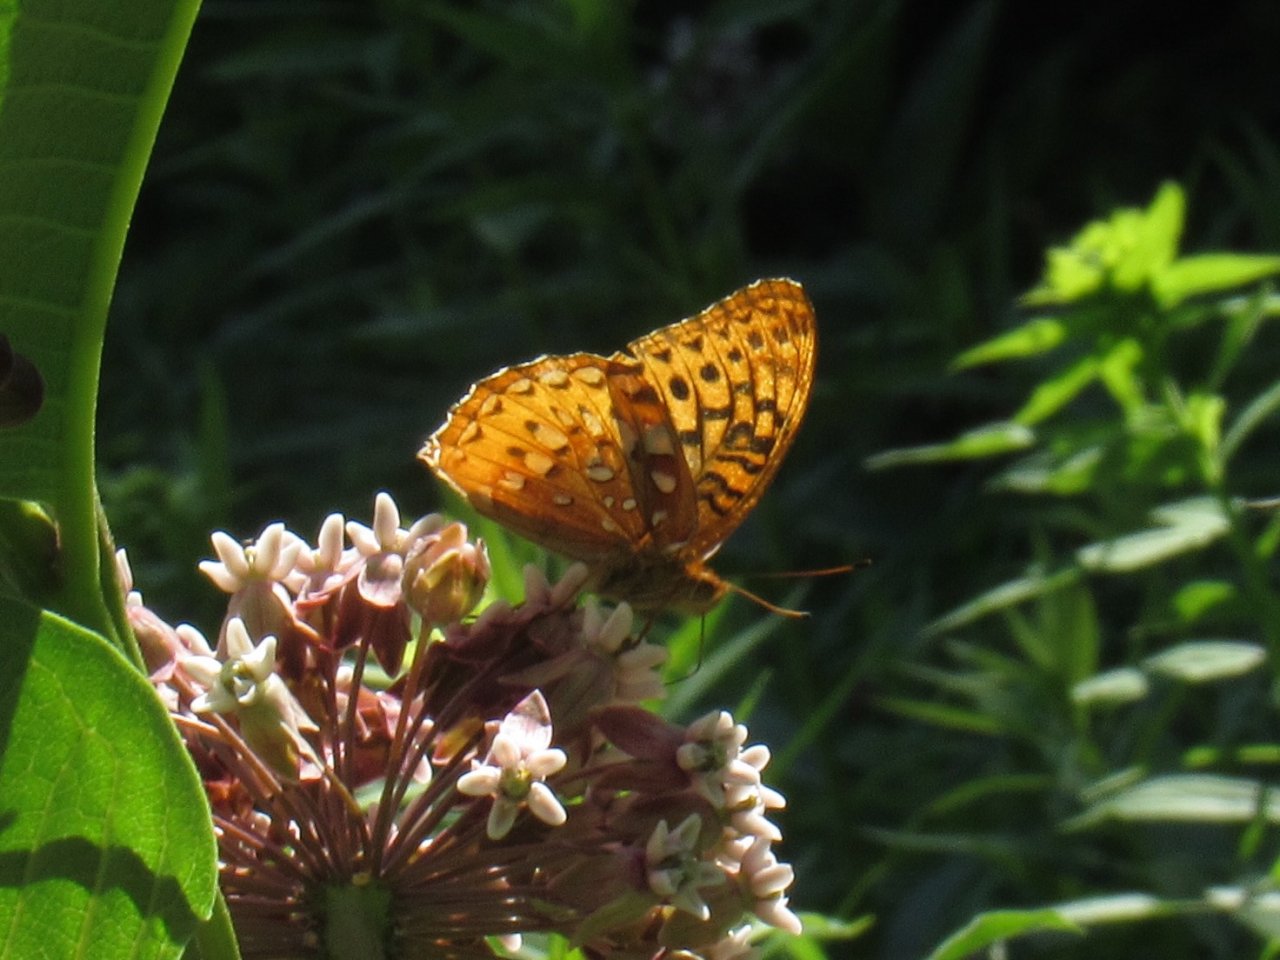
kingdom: Animalia
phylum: Arthropoda
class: Insecta
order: Lepidoptera
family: Nymphalidae
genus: Speyeria
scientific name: Speyeria cybele
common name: Great Spangled Fritillary
